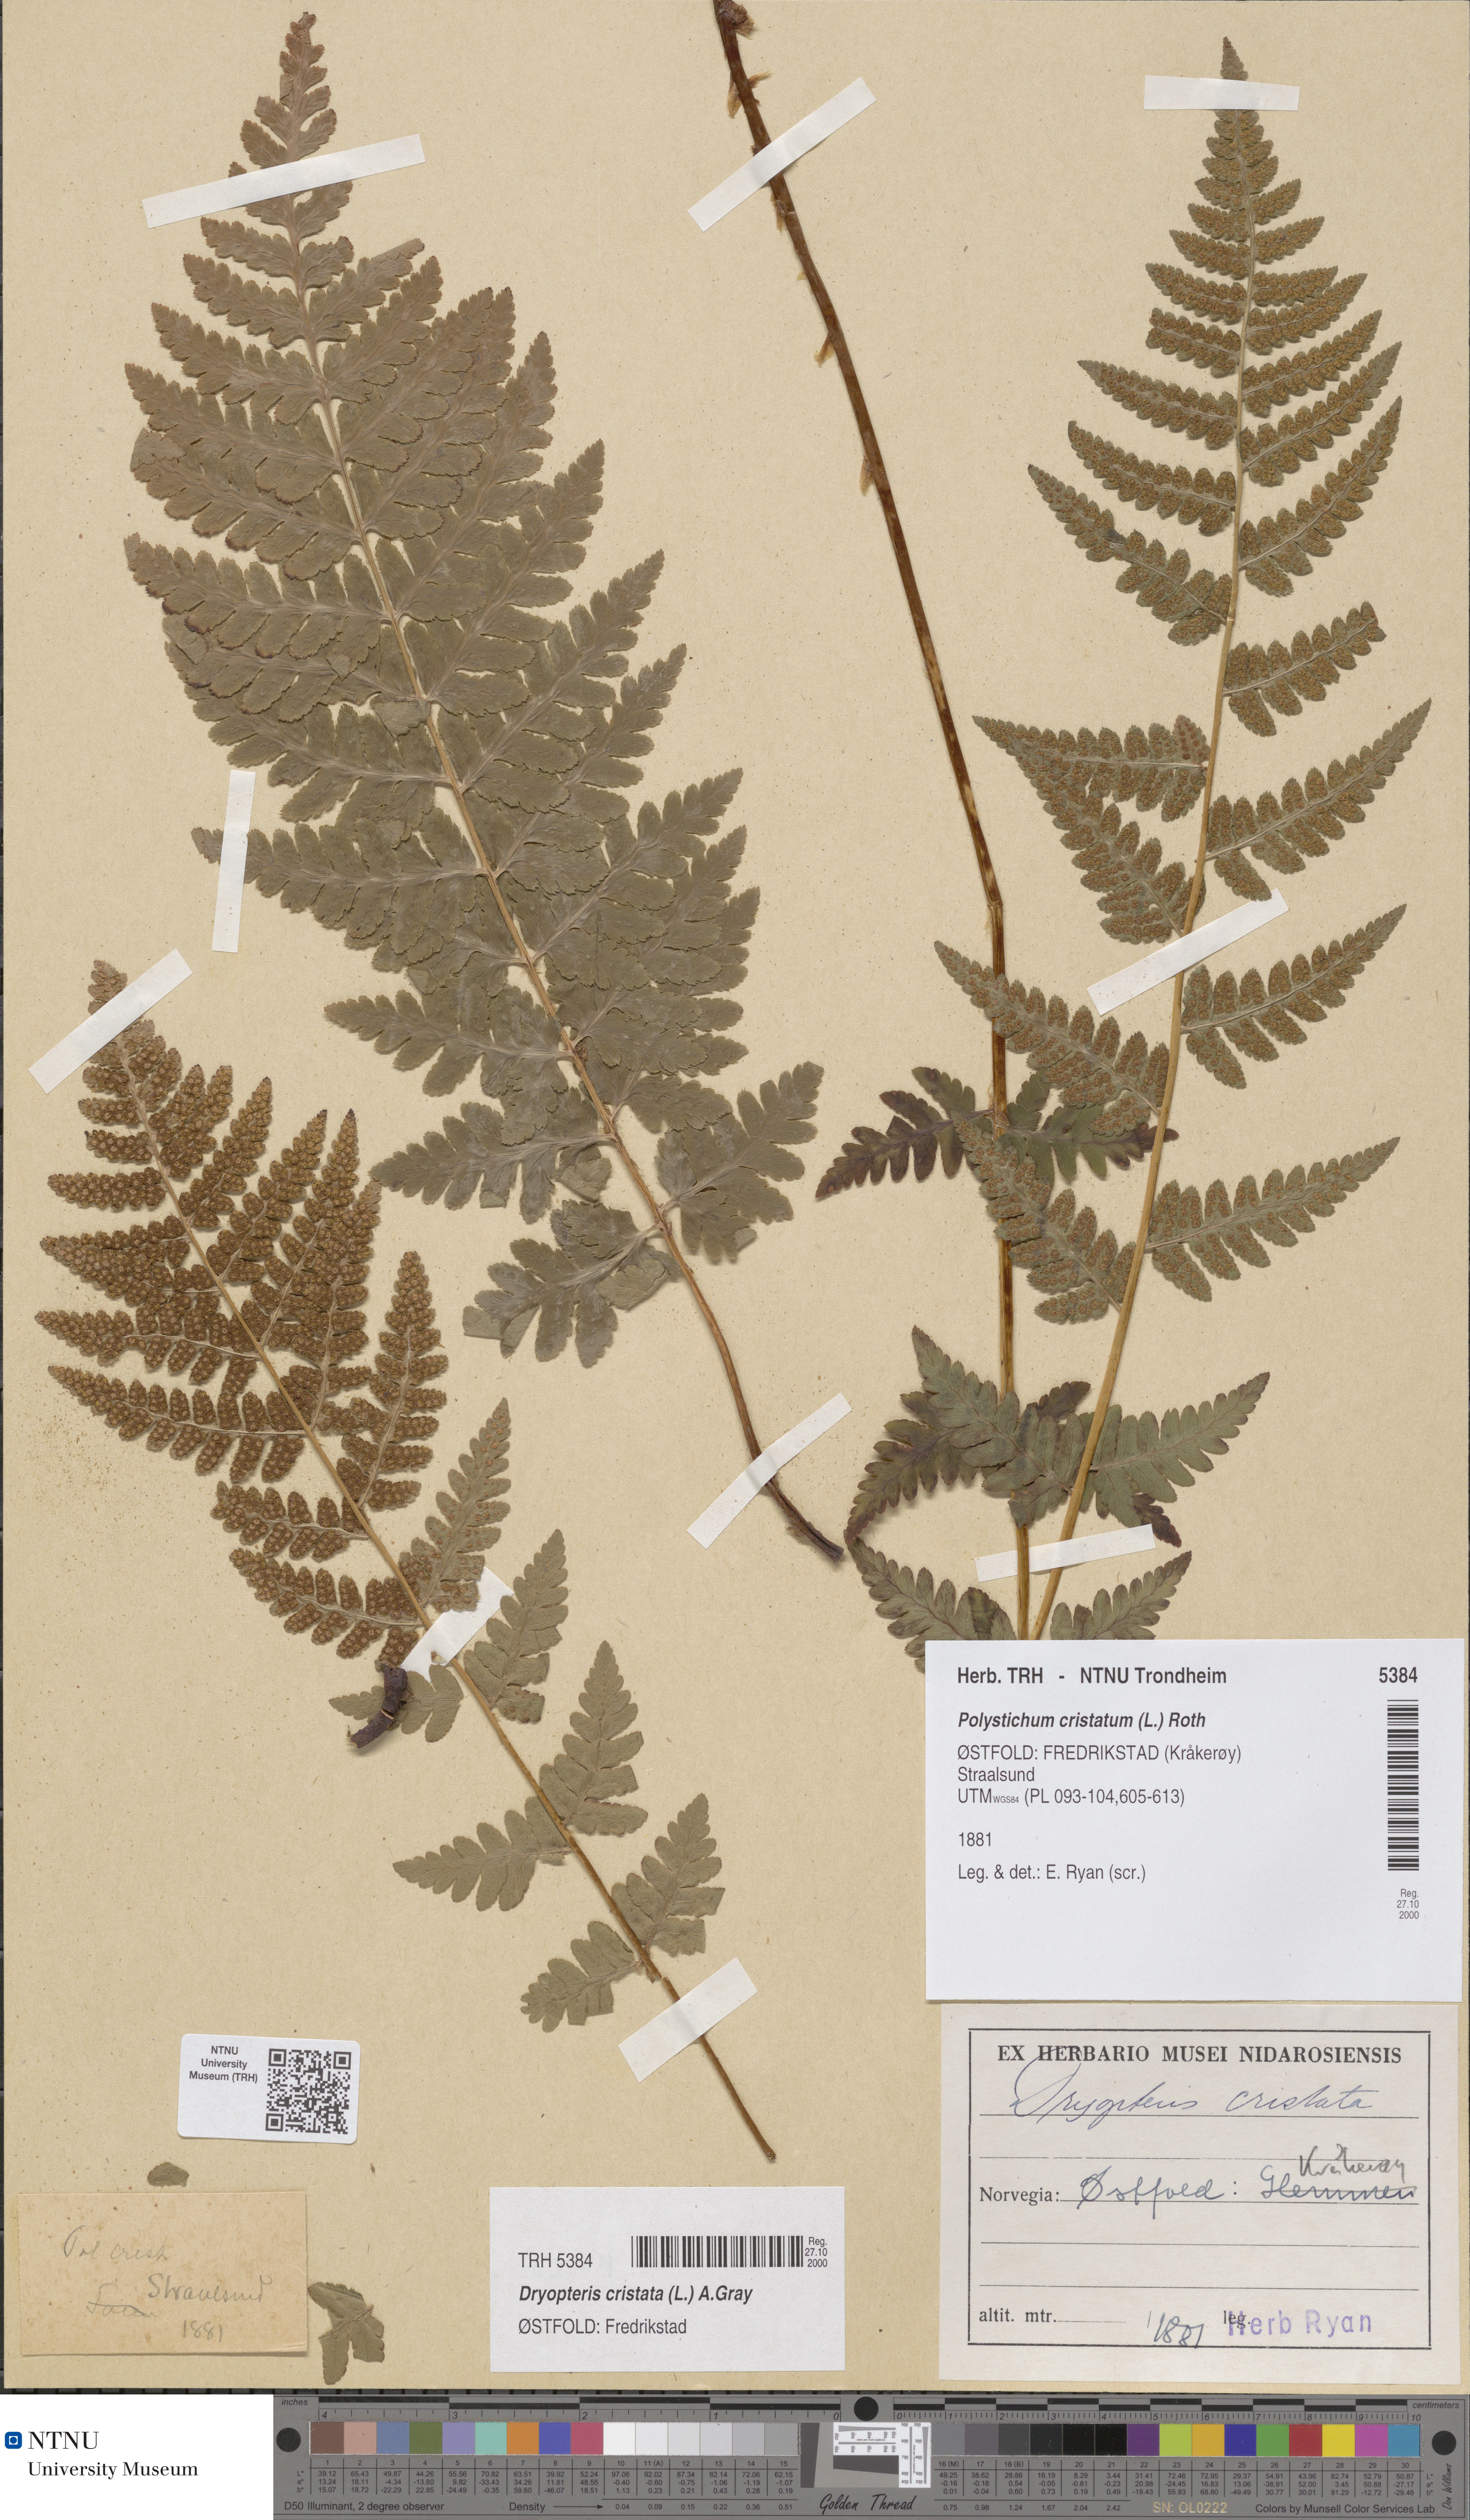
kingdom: Plantae
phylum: Tracheophyta
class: Polypodiopsida
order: Polypodiales
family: Dryopteridaceae
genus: Dryopteris
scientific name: Dryopteris cristata
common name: Crested wood fern
